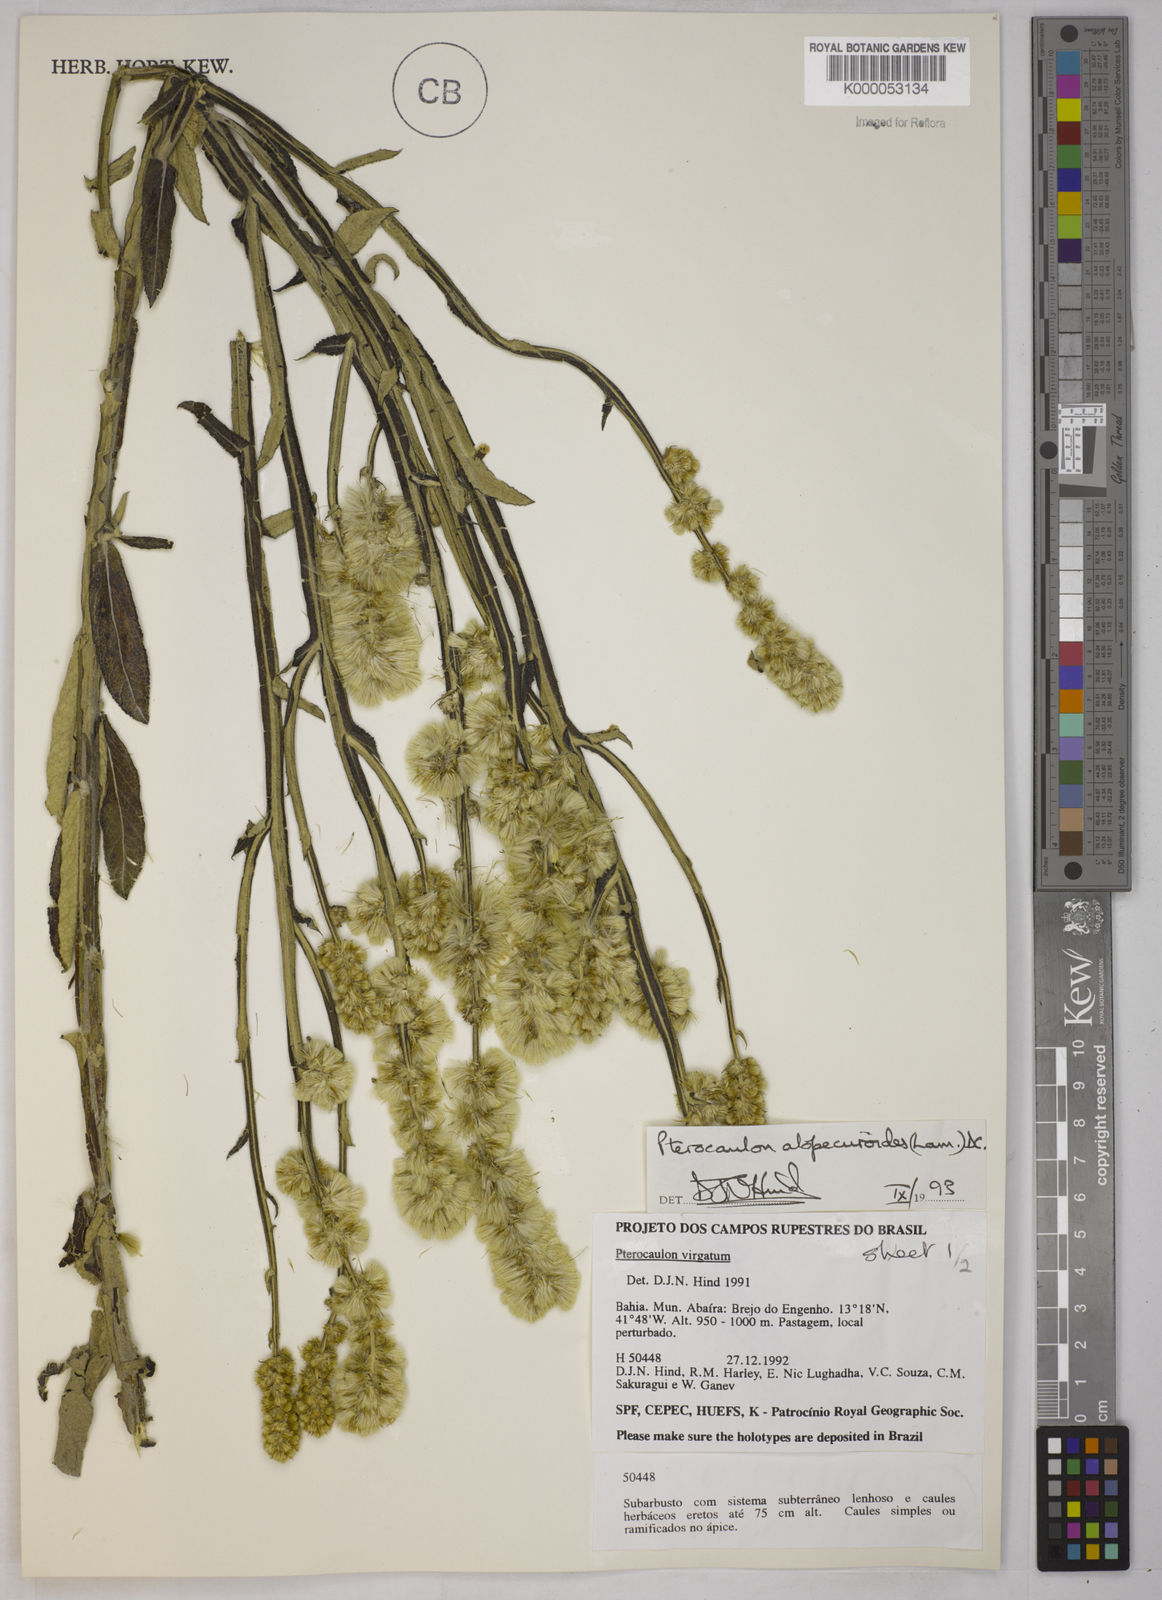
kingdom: Plantae
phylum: Tracheophyta
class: Magnoliopsida
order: Asterales
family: Asteraceae
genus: Pterocaulon
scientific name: Pterocaulon alopecuroides
